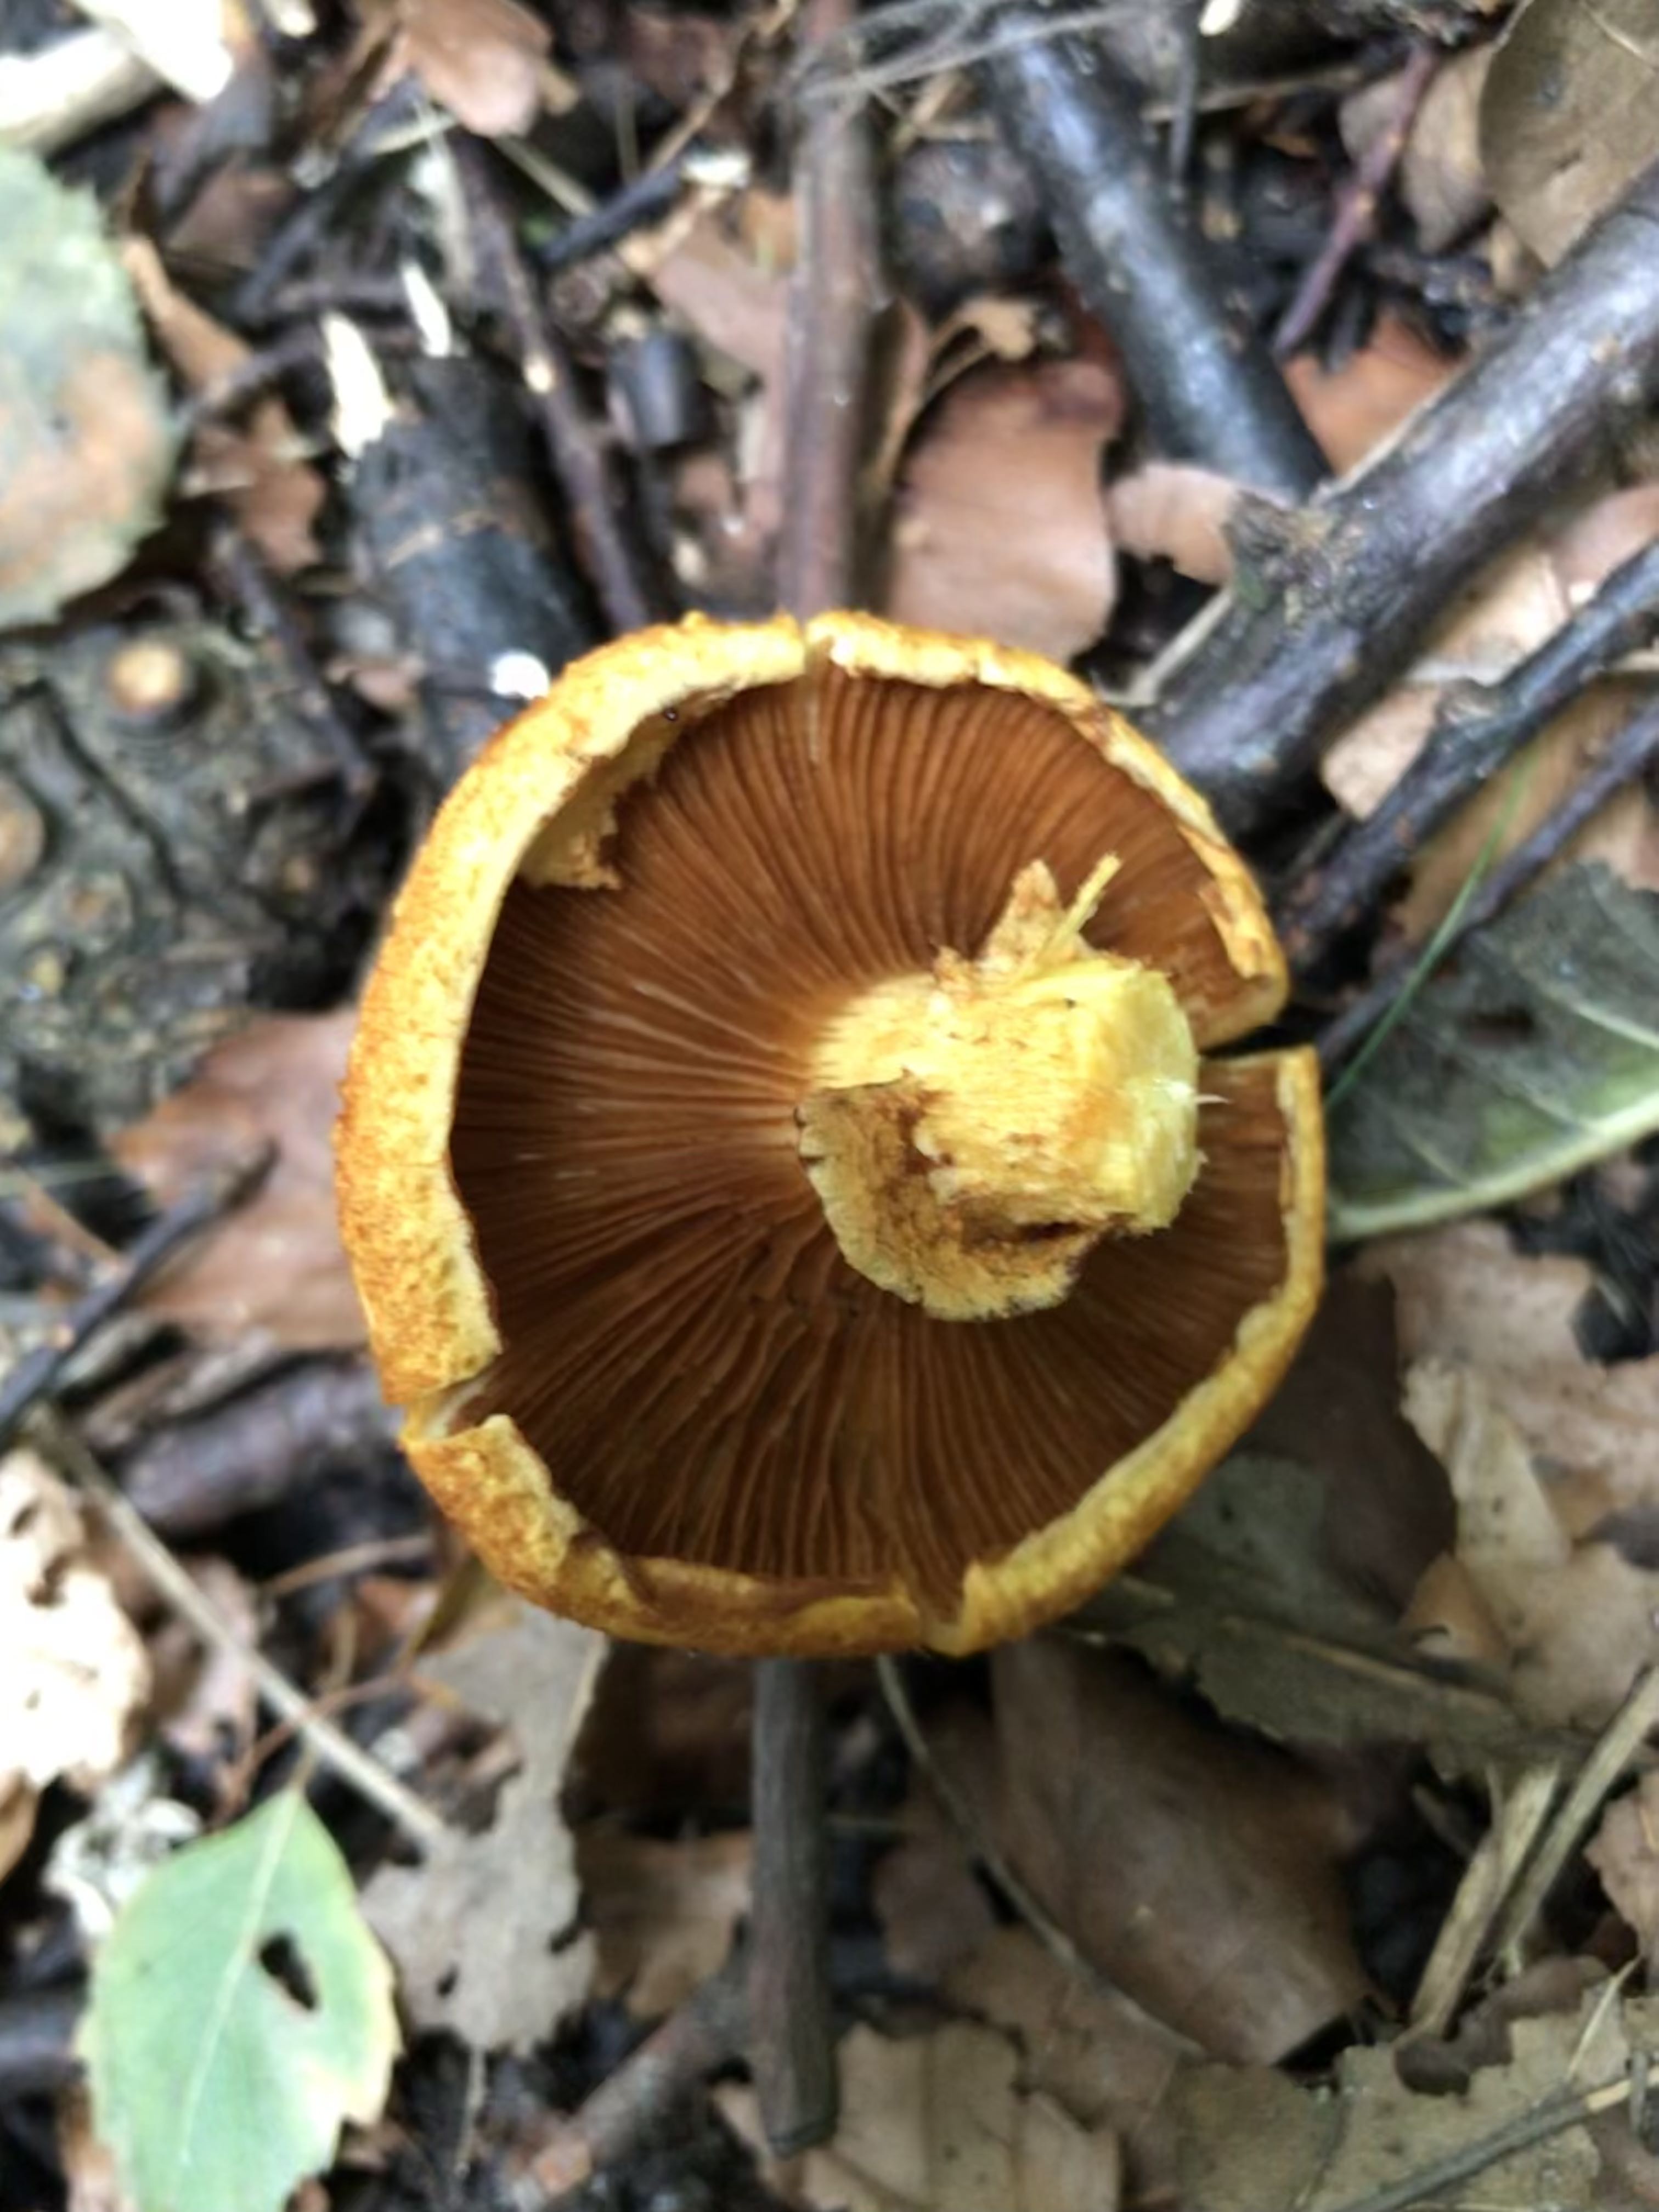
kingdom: Fungi
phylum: Basidiomycota
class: Agaricomycetes
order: Agaricales
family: Hymenogastraceae
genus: Gymnopilus
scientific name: Gymnopilus spectabilis
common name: fibret flammehat
